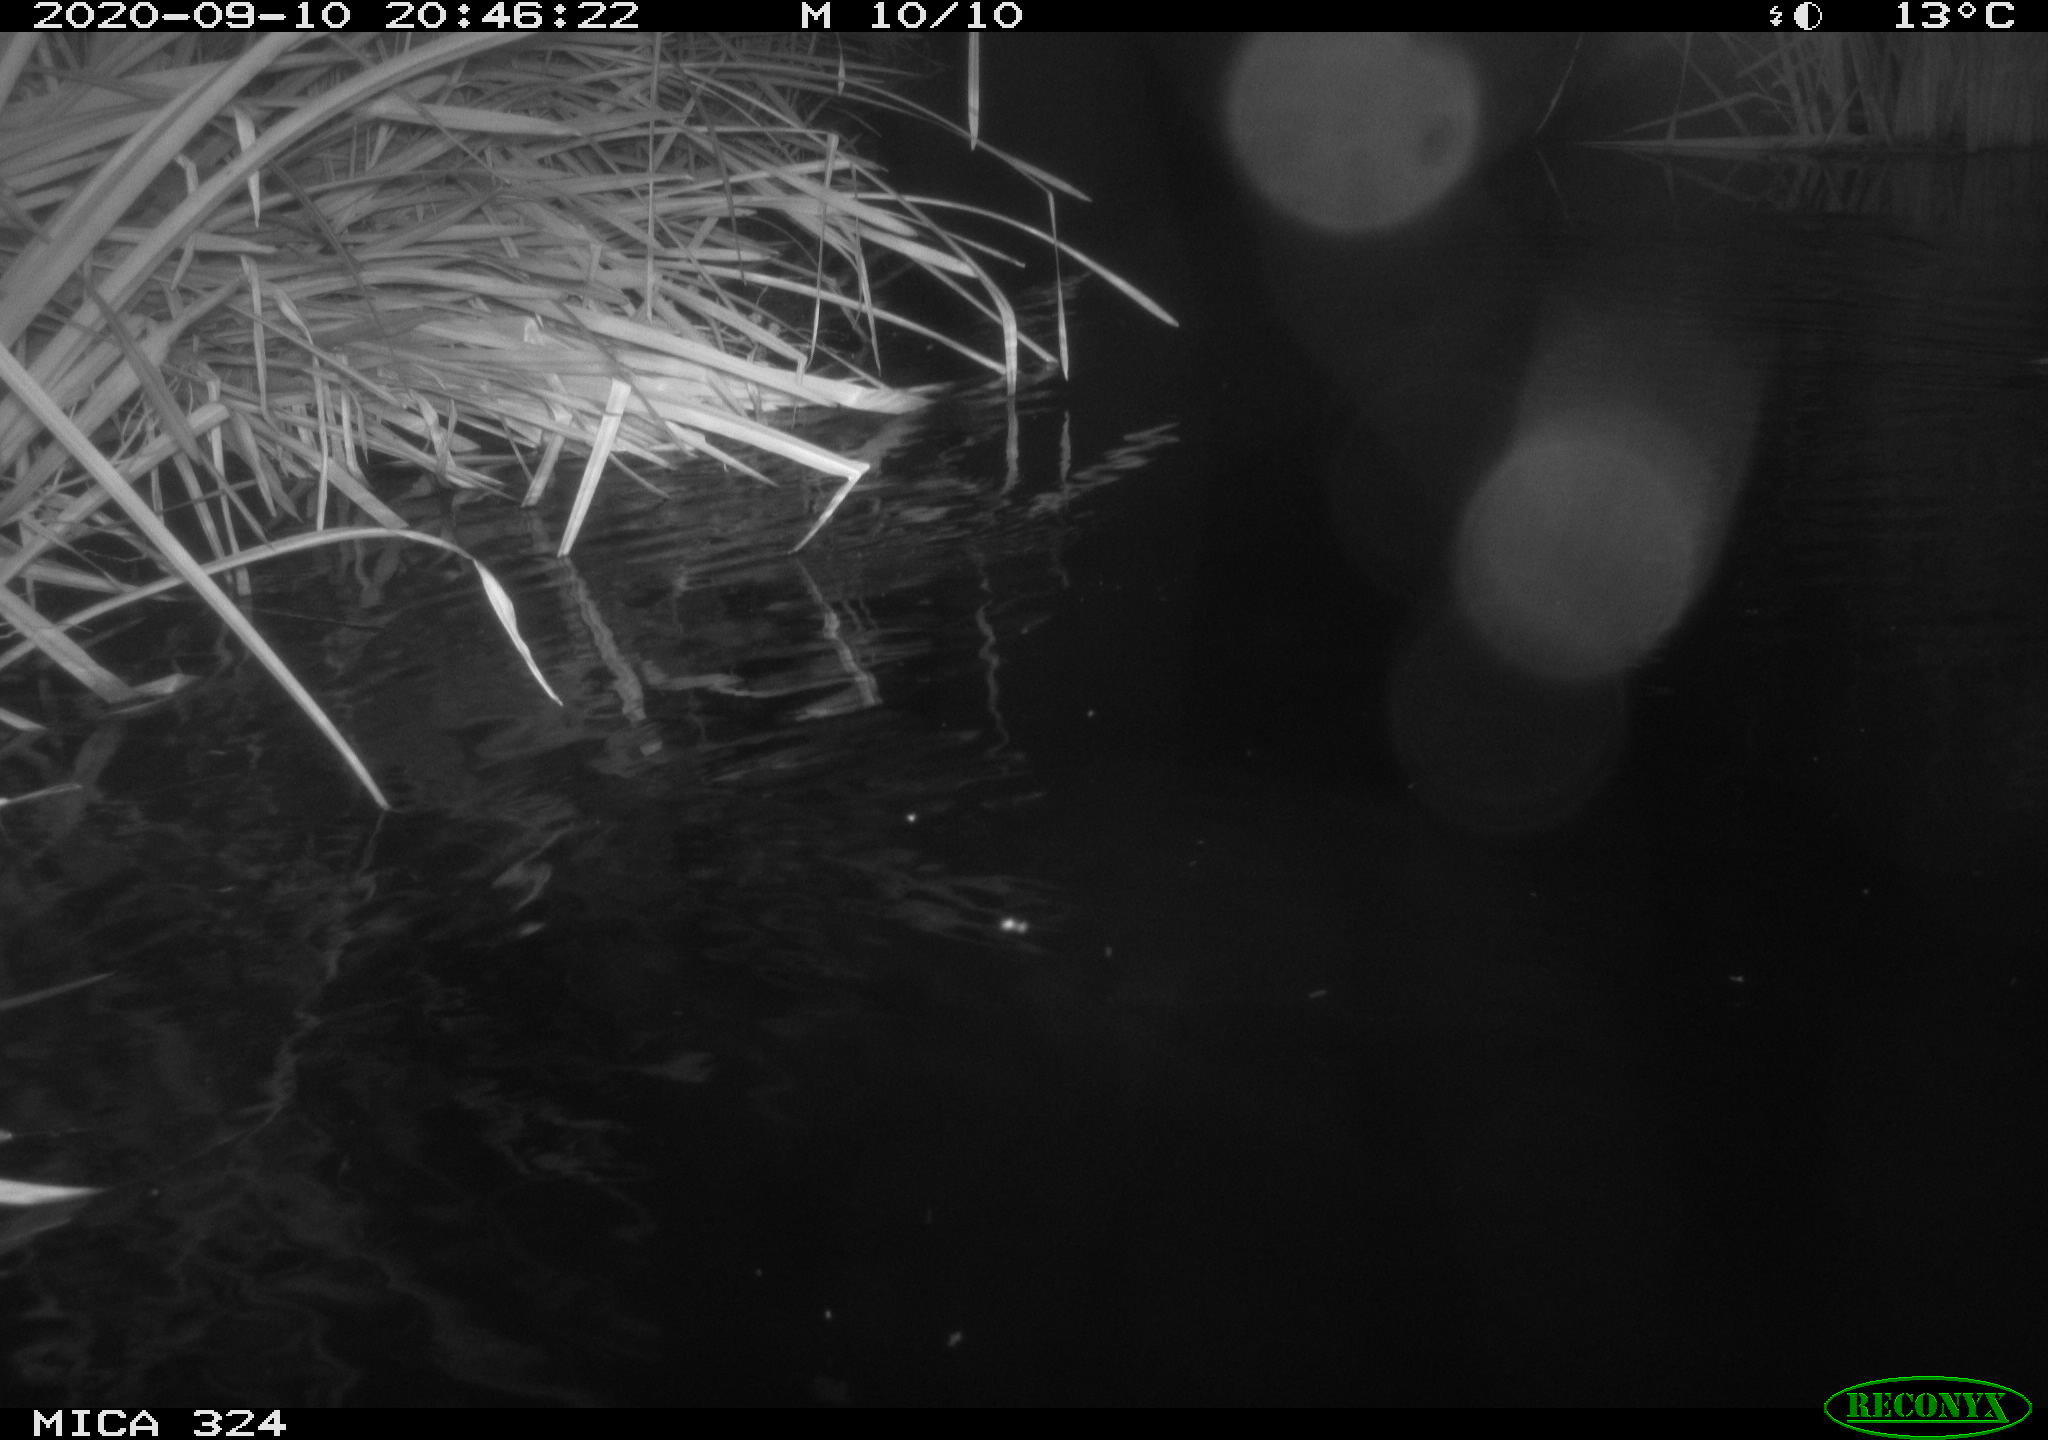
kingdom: Animalia
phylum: Chordata
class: Mammalia
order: Rodentia
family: Cricetidae
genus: Ondatra
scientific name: Ondatra zibethicus
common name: Muskrat
